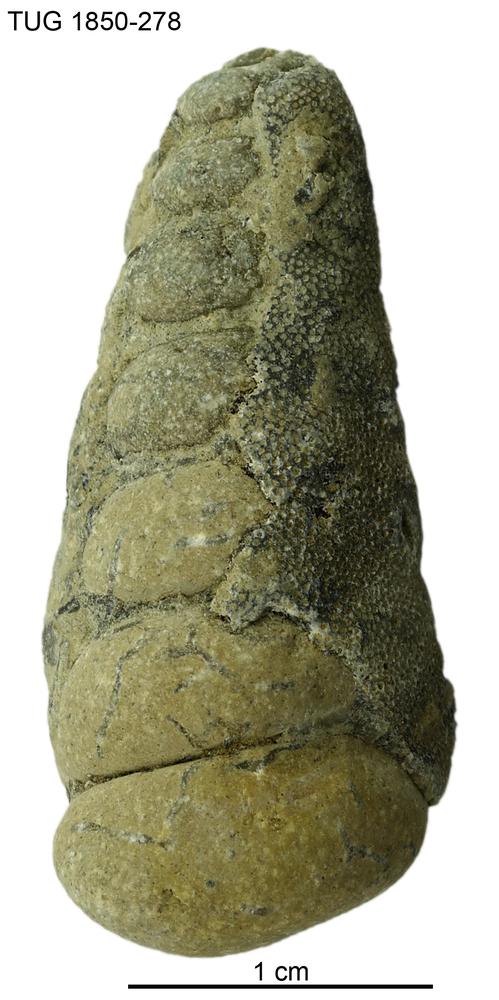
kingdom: Animalia
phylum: Mollusca
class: Gastropoda
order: Pleurotomariida
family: Murchisoniidae
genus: Hormotoma
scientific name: Hormotoma
